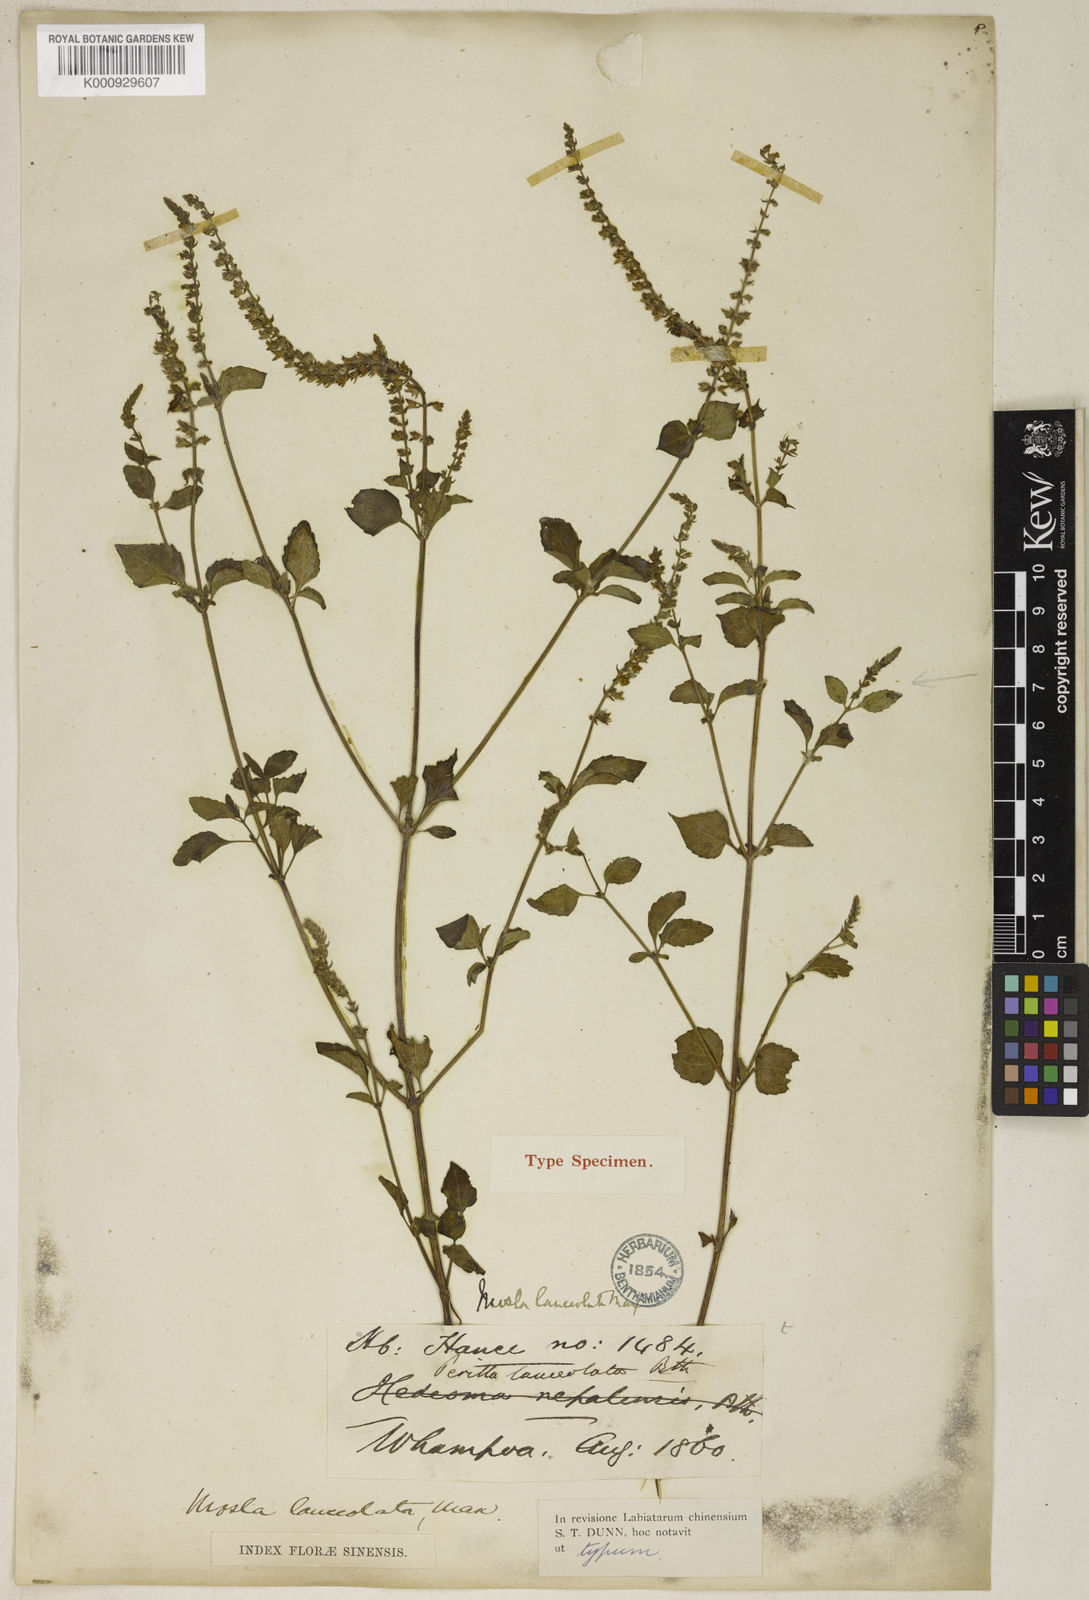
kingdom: Plantae
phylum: Tracheophyta
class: Magnoliopsida
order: Lamiales
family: Lamiaceae
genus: Mosla
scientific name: Mosla scabra
